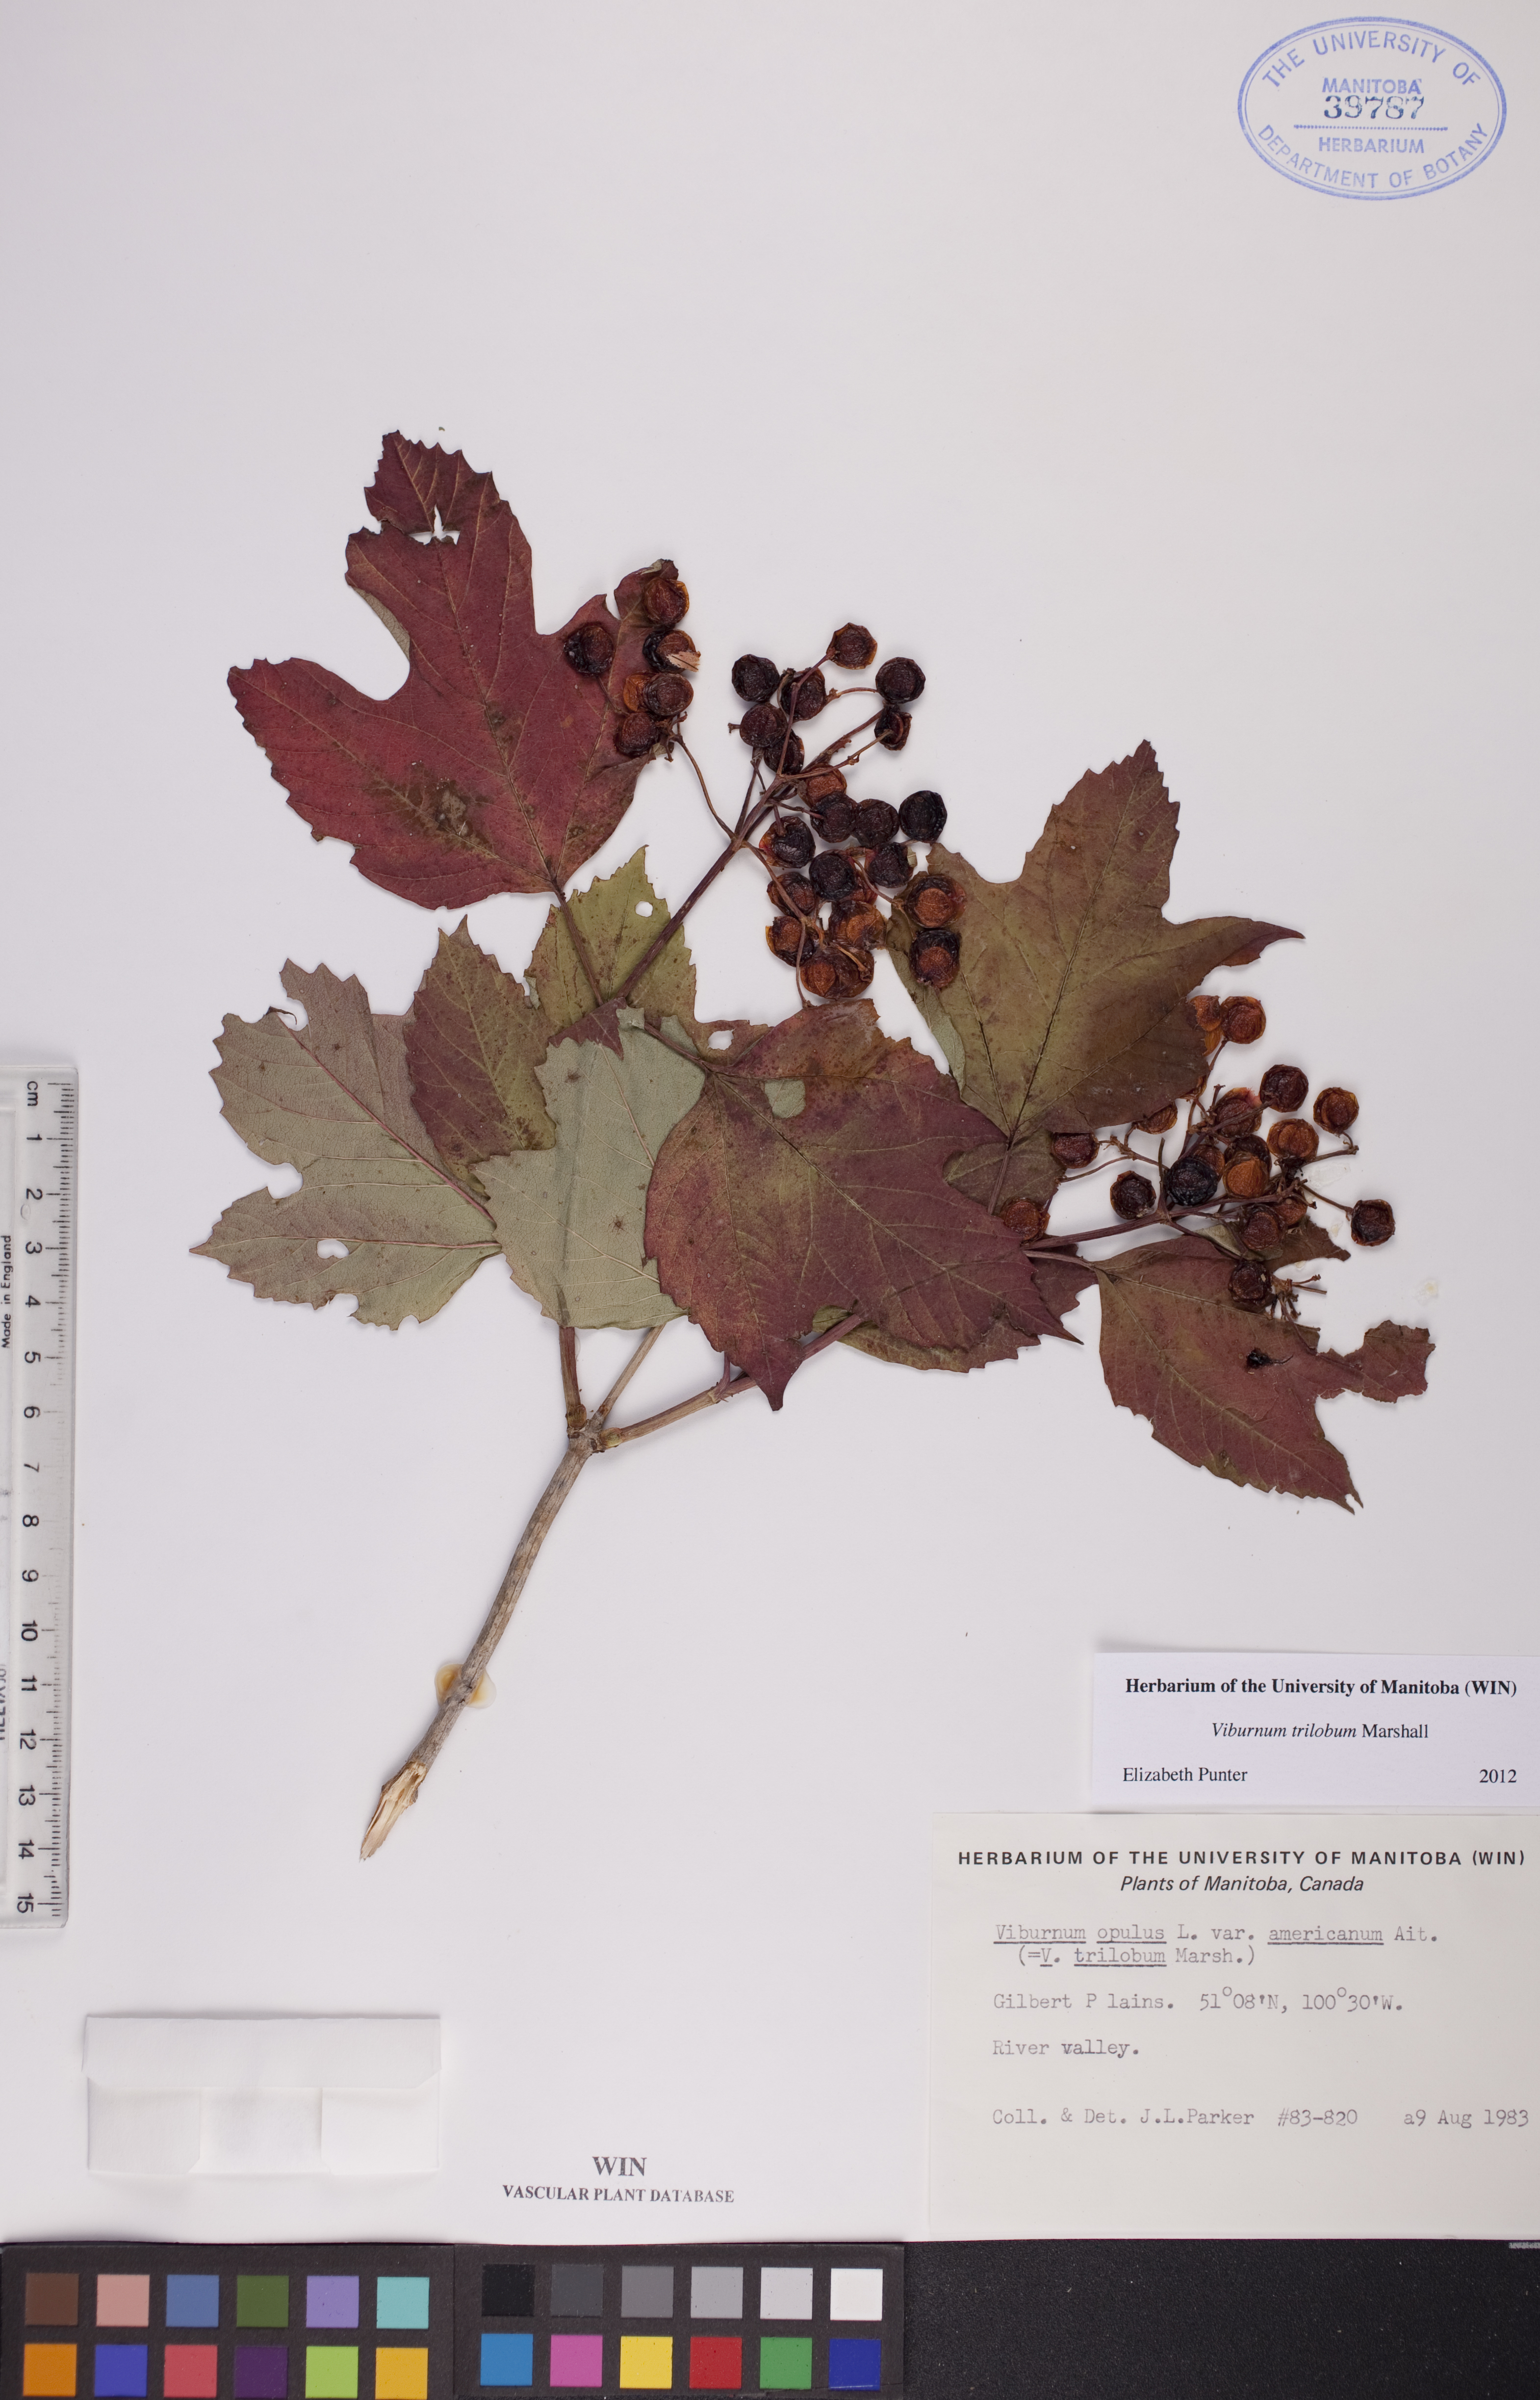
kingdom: Plantae
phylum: Tracheophyta
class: Magnoliopsida
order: Dipsacales
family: Viburnaceae
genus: Viburnum
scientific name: Viburnum trilobum
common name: American cranberrybush
